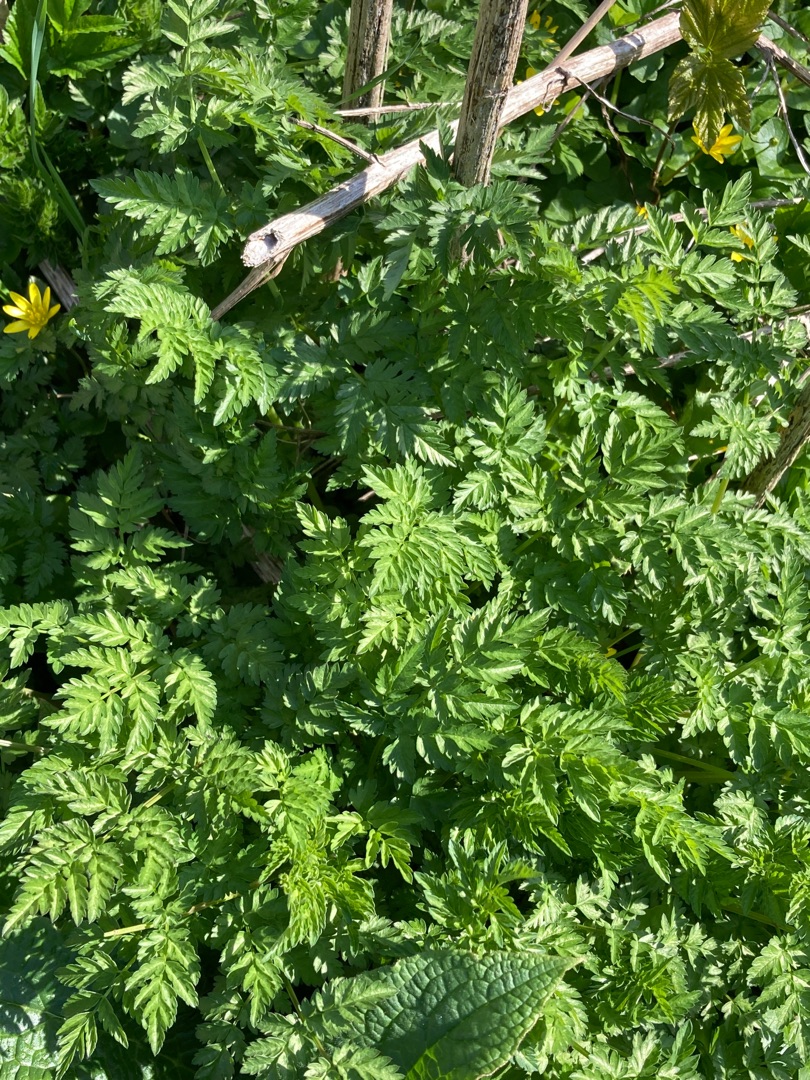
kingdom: Plantae
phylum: Tracheophyta
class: Magnoliopsida
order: Apiales
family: Apiaceae
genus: Anthriscus
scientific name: Anthriscus sylvestris
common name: Vild kørvel
